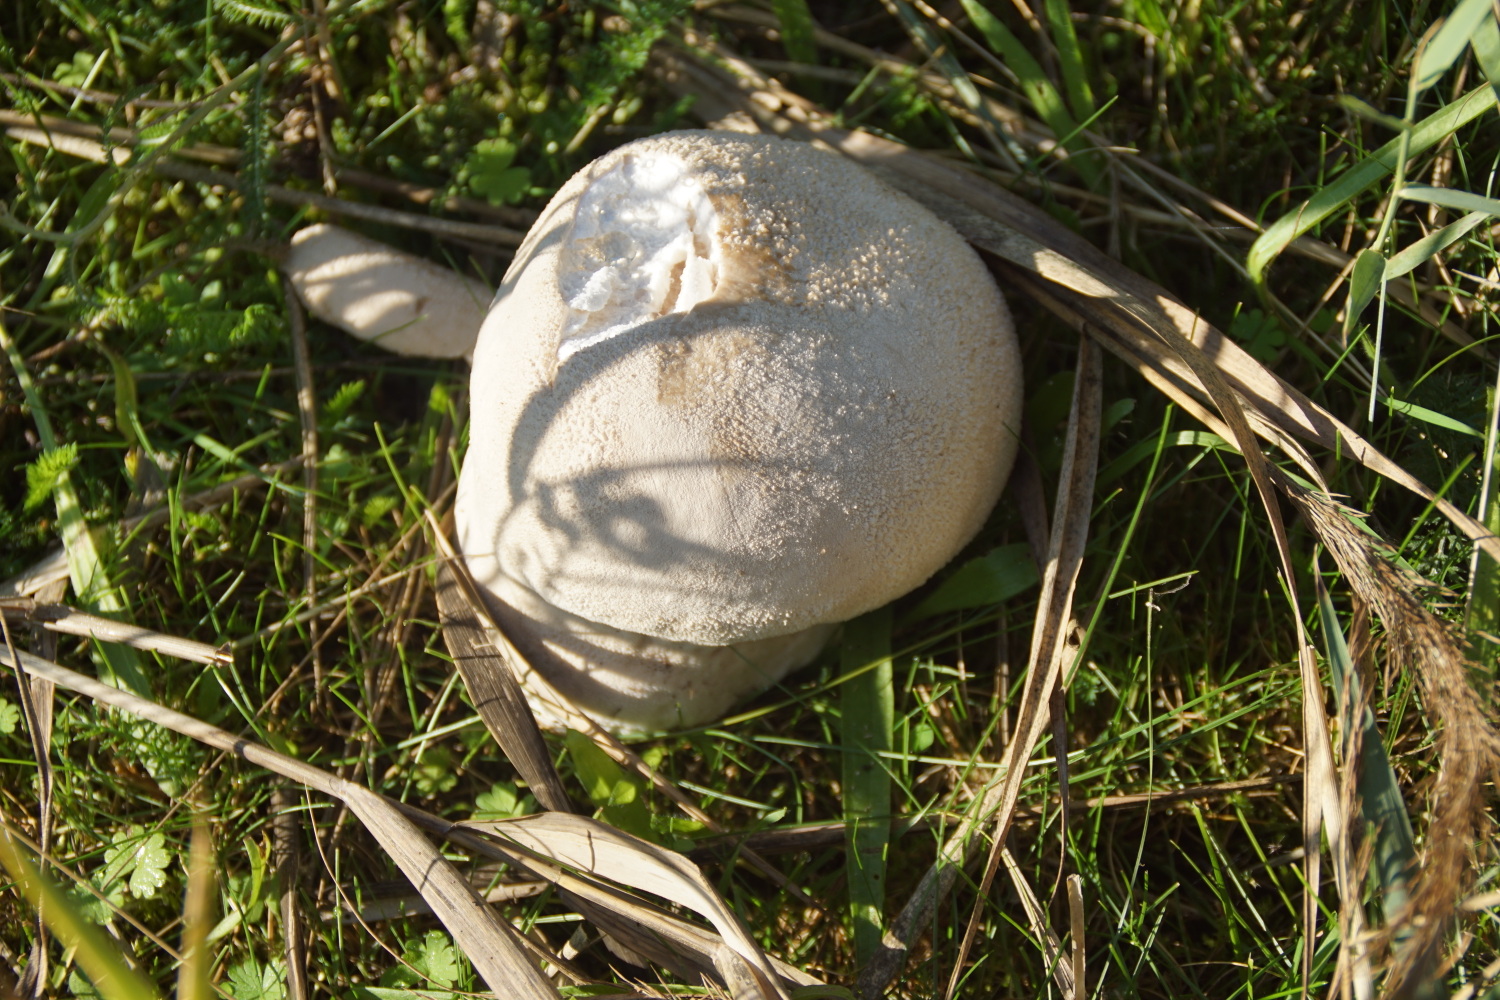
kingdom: Fungi
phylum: Basidiomycota
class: Agaricomycetes
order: Agaricales
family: Lycoperdaceae
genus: Bovistella
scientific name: Bovistella utriformis
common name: skællet støvbold
